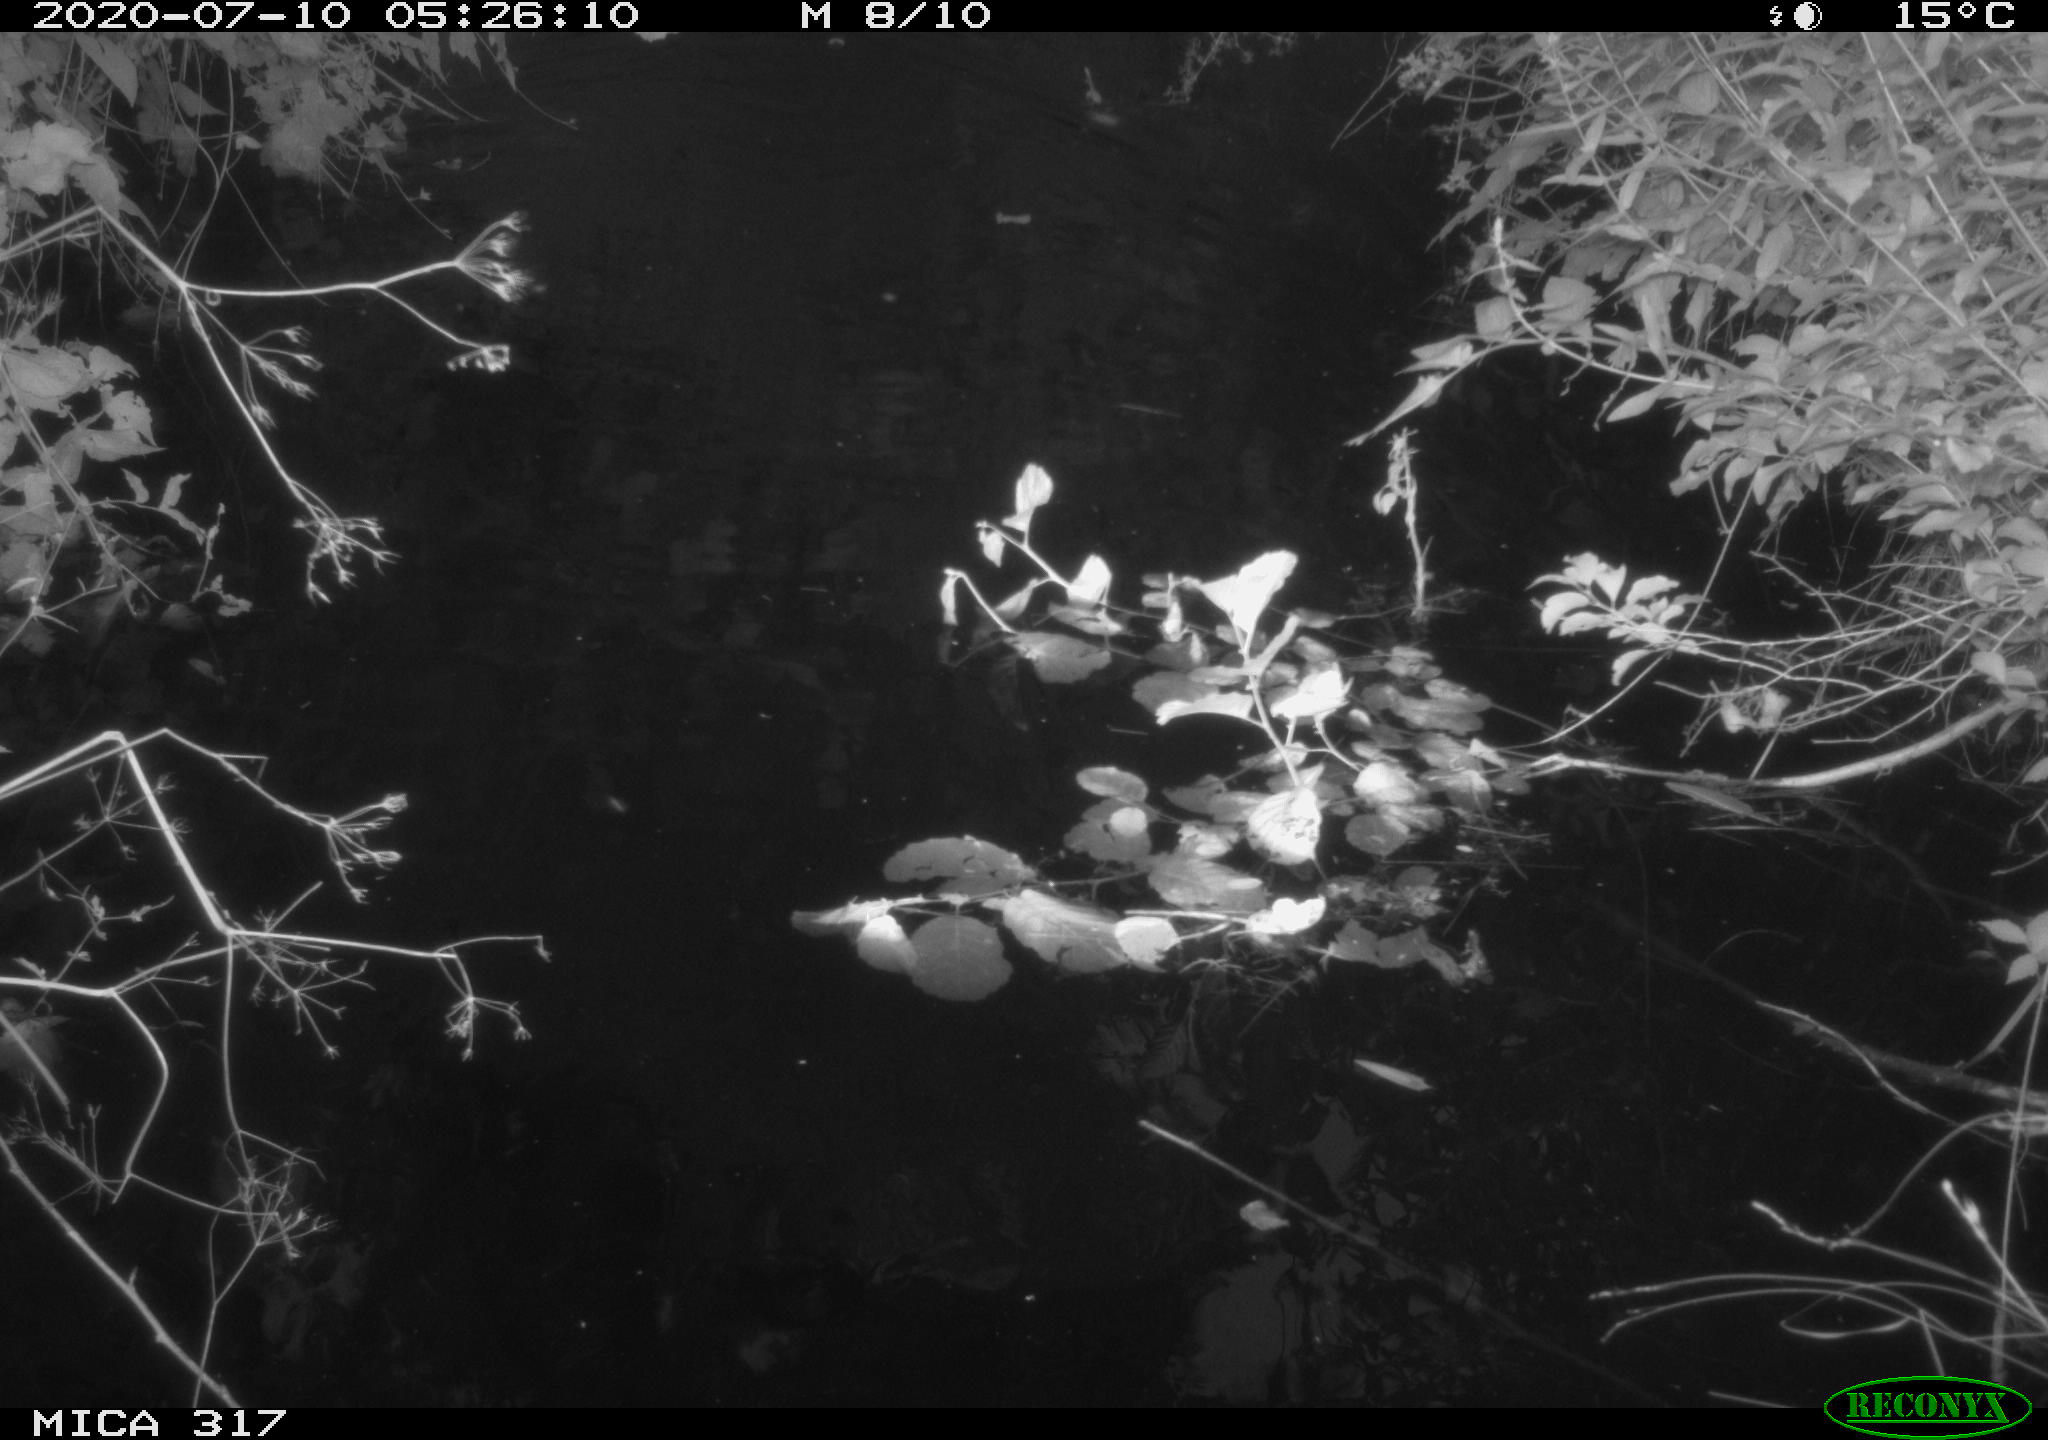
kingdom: Animalia
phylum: Chordata
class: Aves
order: Anseriformes
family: Anatidae
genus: Anas
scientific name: Anas platyrhynchos
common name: Mallard
